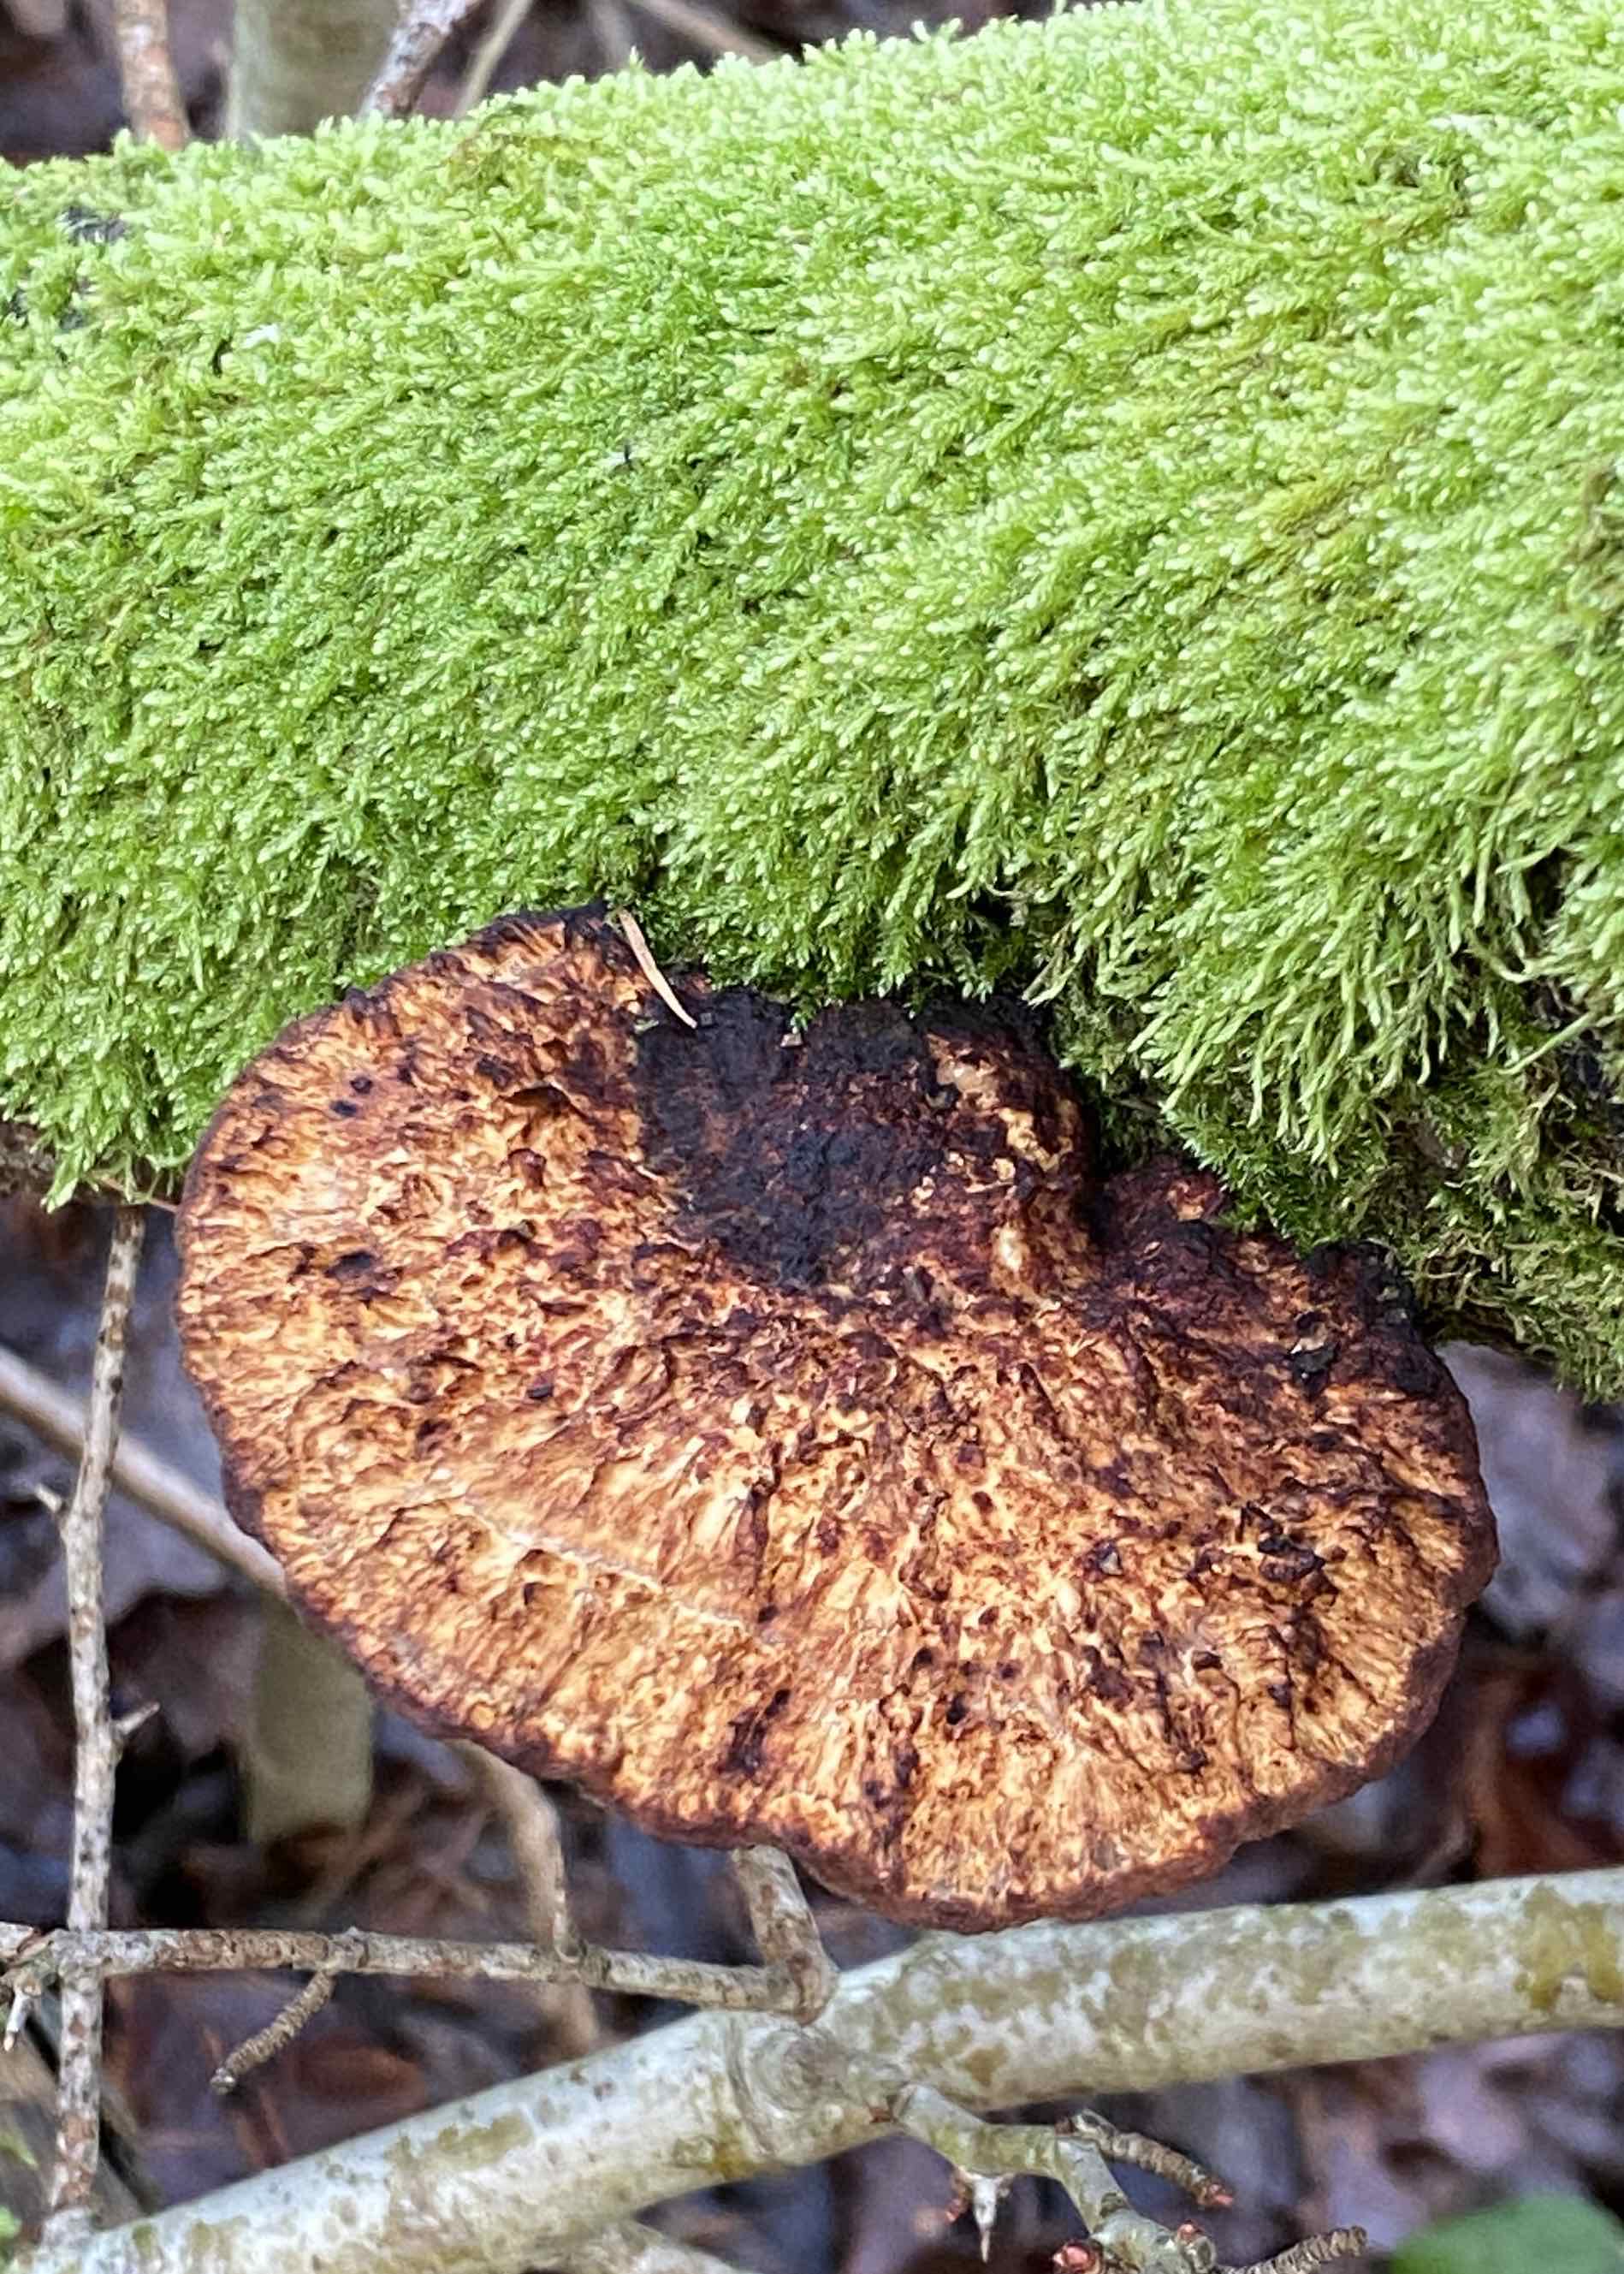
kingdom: Fungi
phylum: Basidiomycota
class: Agaricomycetes
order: Polyporales
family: Polyporaceae
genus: Daedaleopsis
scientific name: Daedaleopsis confragosa
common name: rødmende læderporesvamp
